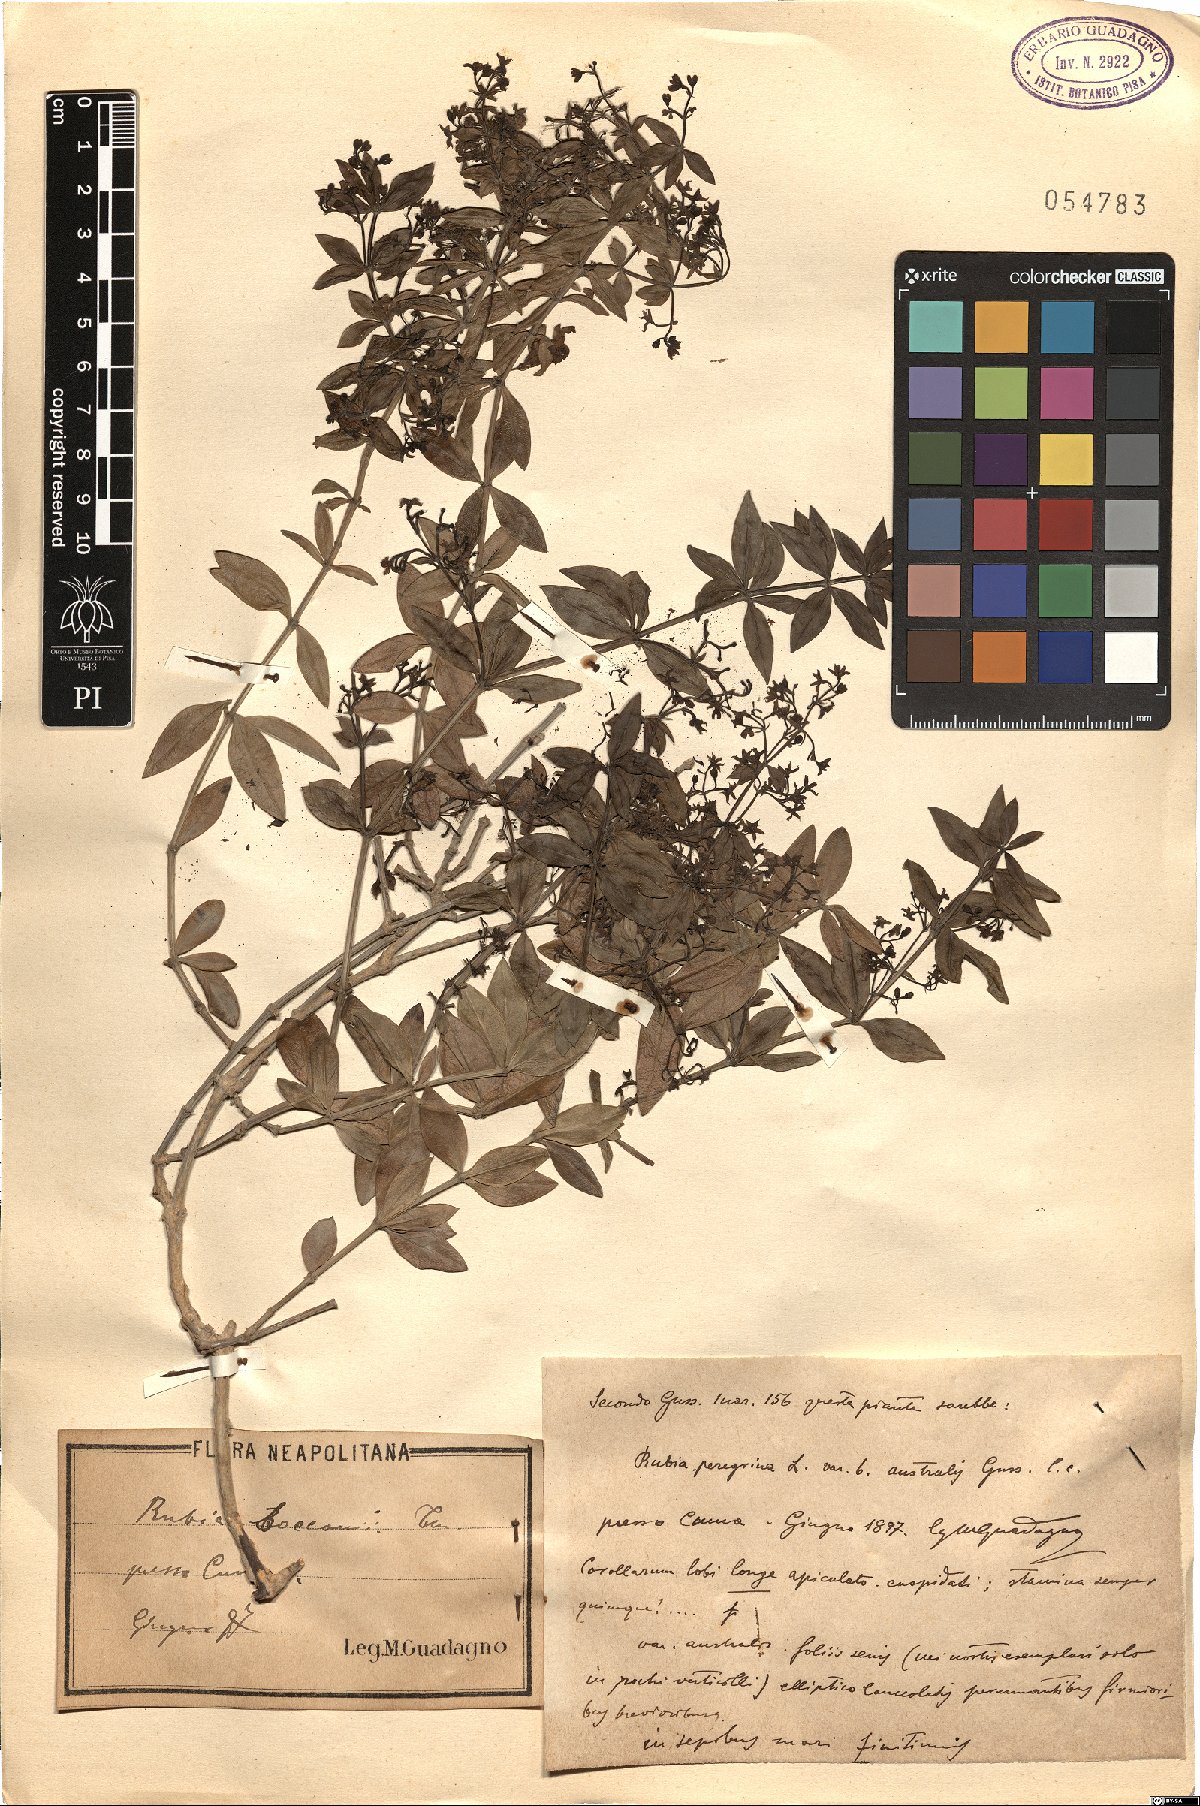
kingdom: Plantae
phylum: Tracheophyta
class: Magnoliopsida
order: Gentianales
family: Rubiaceae
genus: Rubia
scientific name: Rubia peregrina
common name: Wild madder
